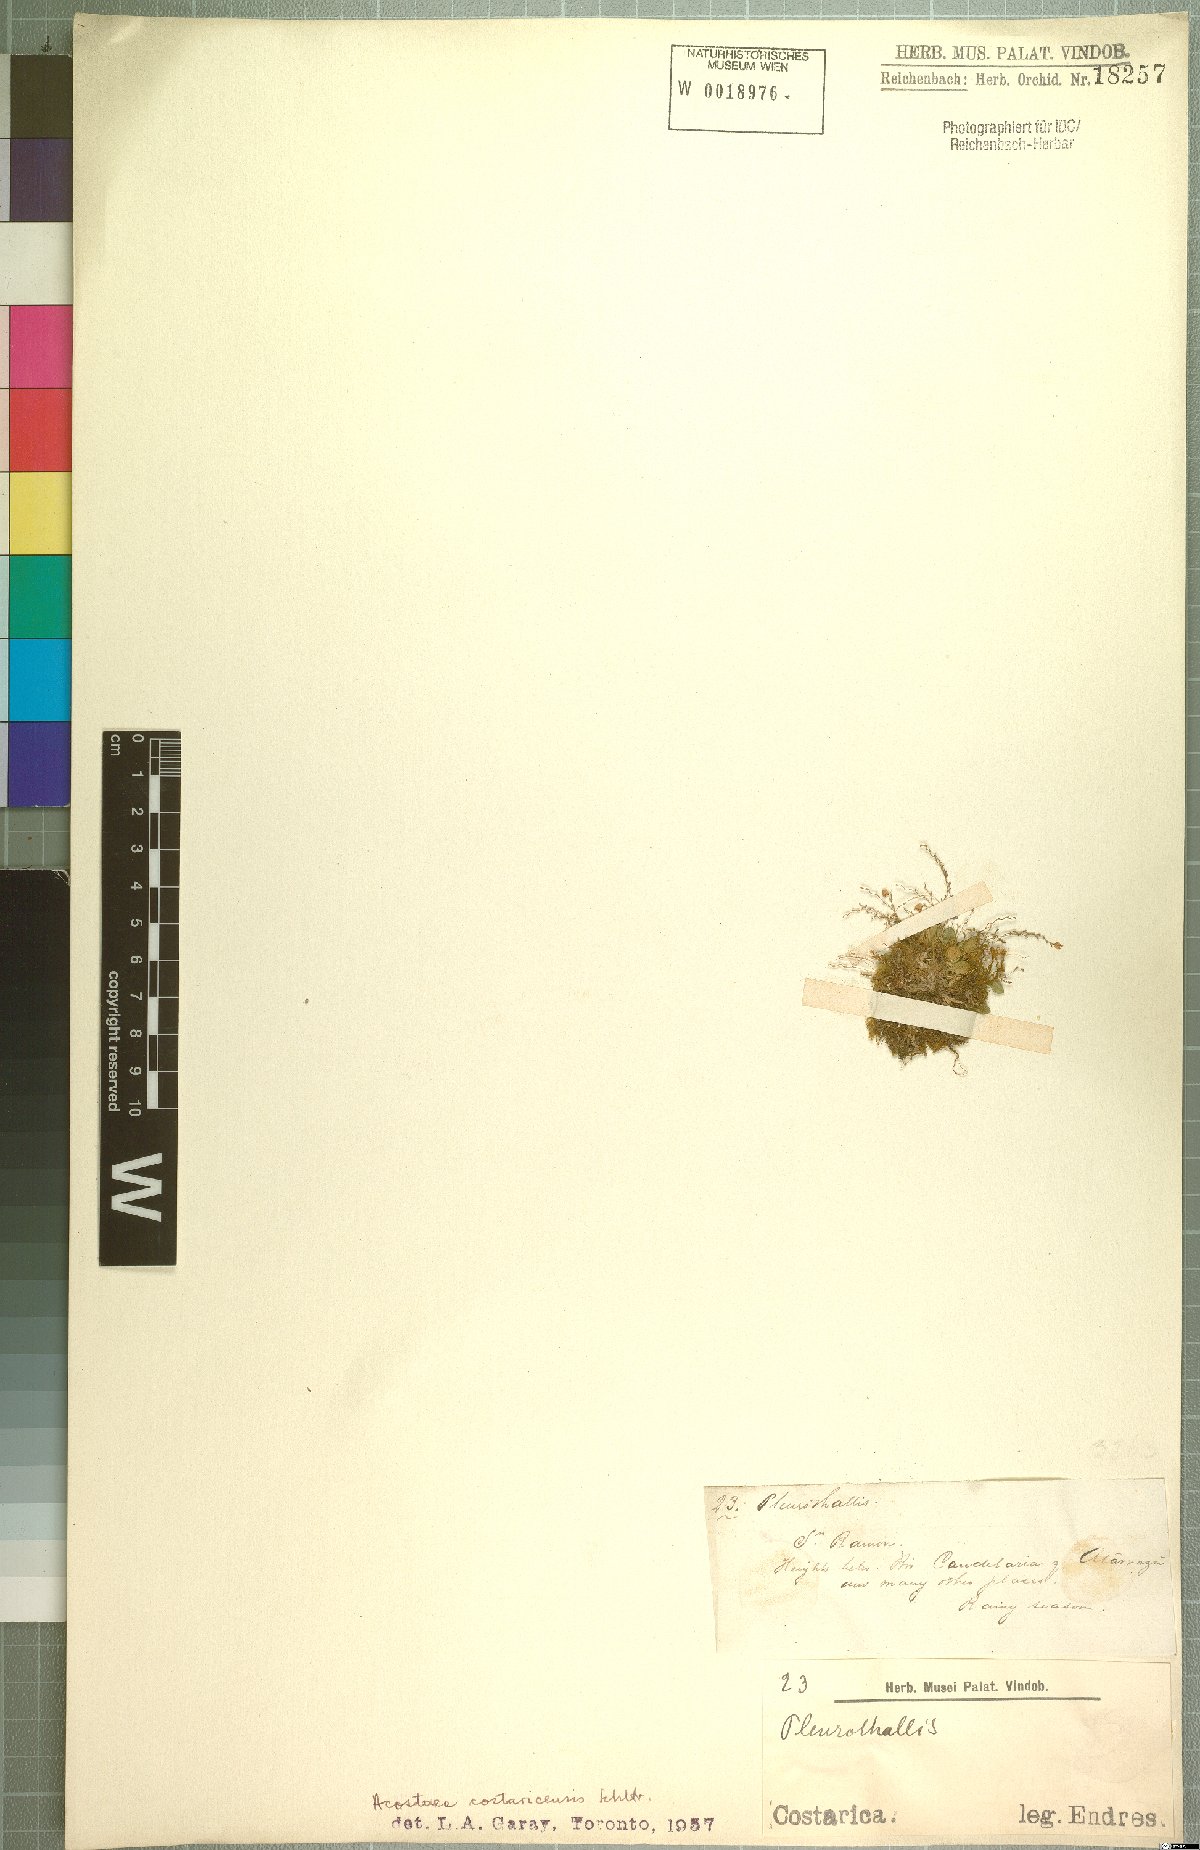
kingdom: Plantae
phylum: Tracheophyta
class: Liliopsida
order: Asparagales
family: Orchidaceae
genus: Specklinia
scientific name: Specklinia colombiana
